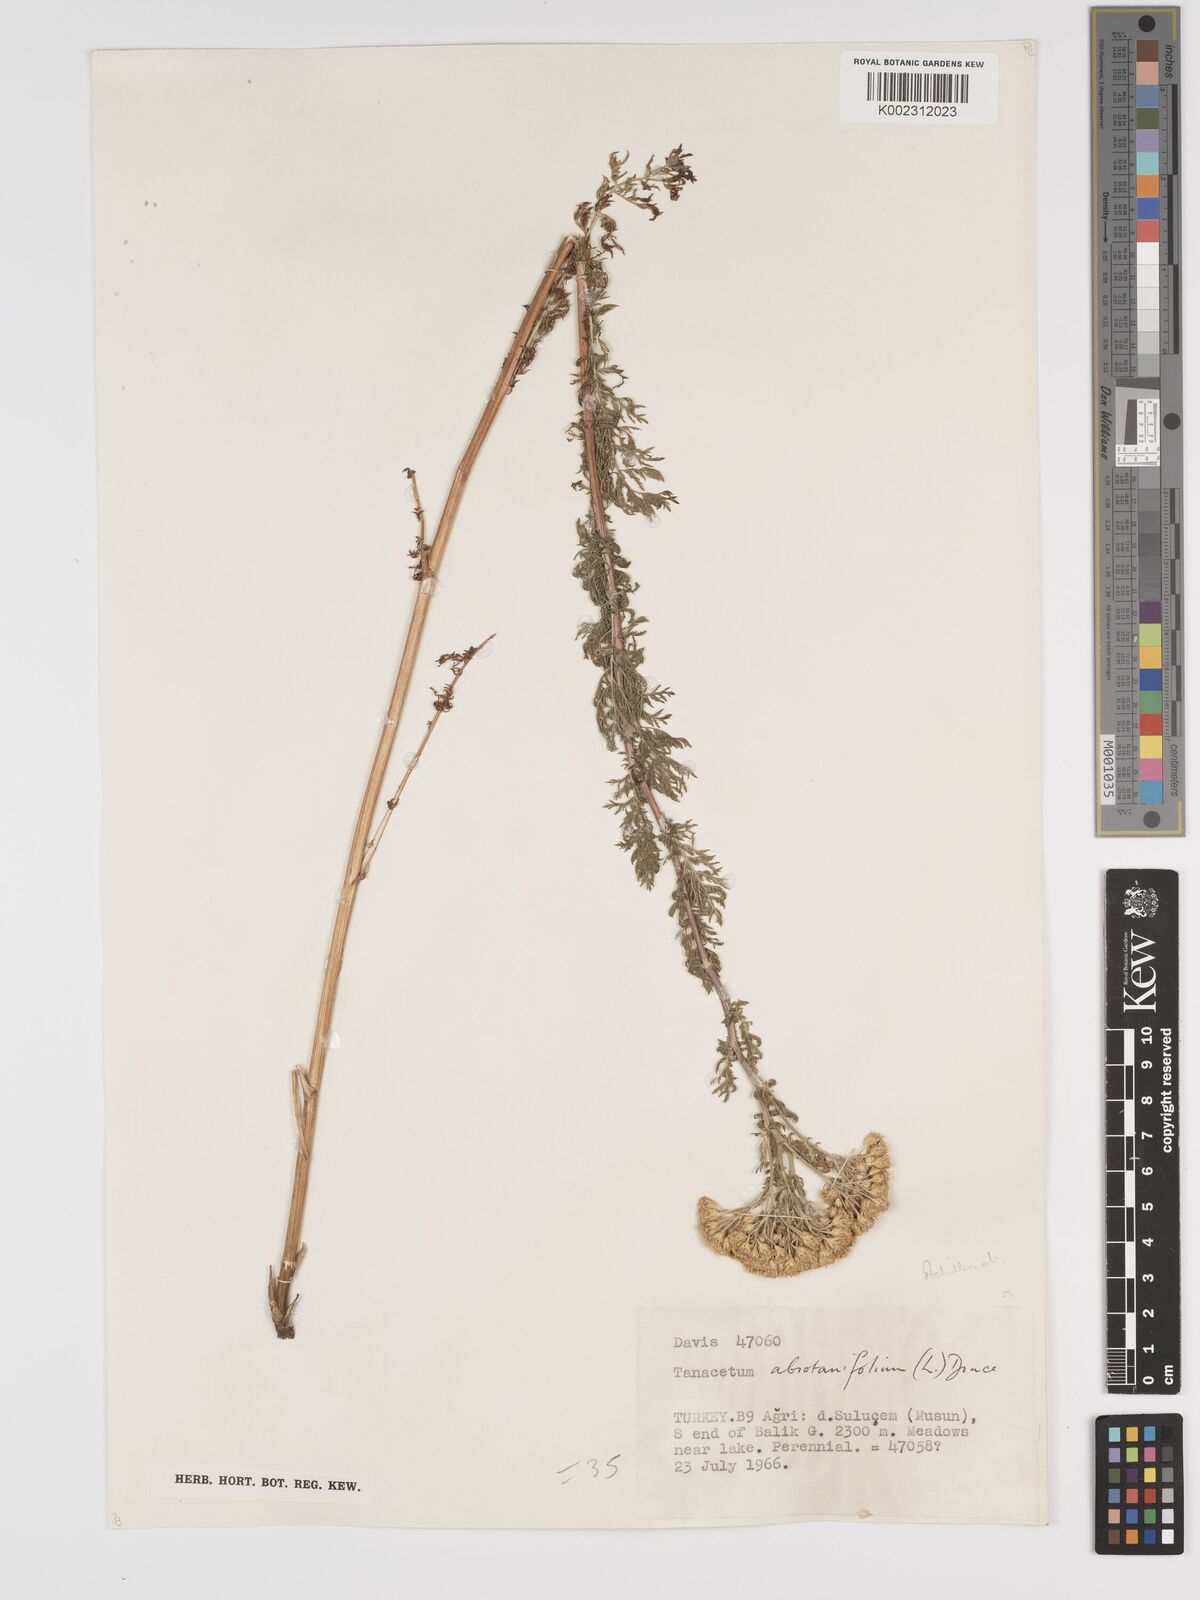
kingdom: Plantae
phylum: Tracheophyta
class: Magnoliopsida
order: Asterales
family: Asteraceae
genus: Tanacetum
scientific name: Tanacetum abrotanifolium
